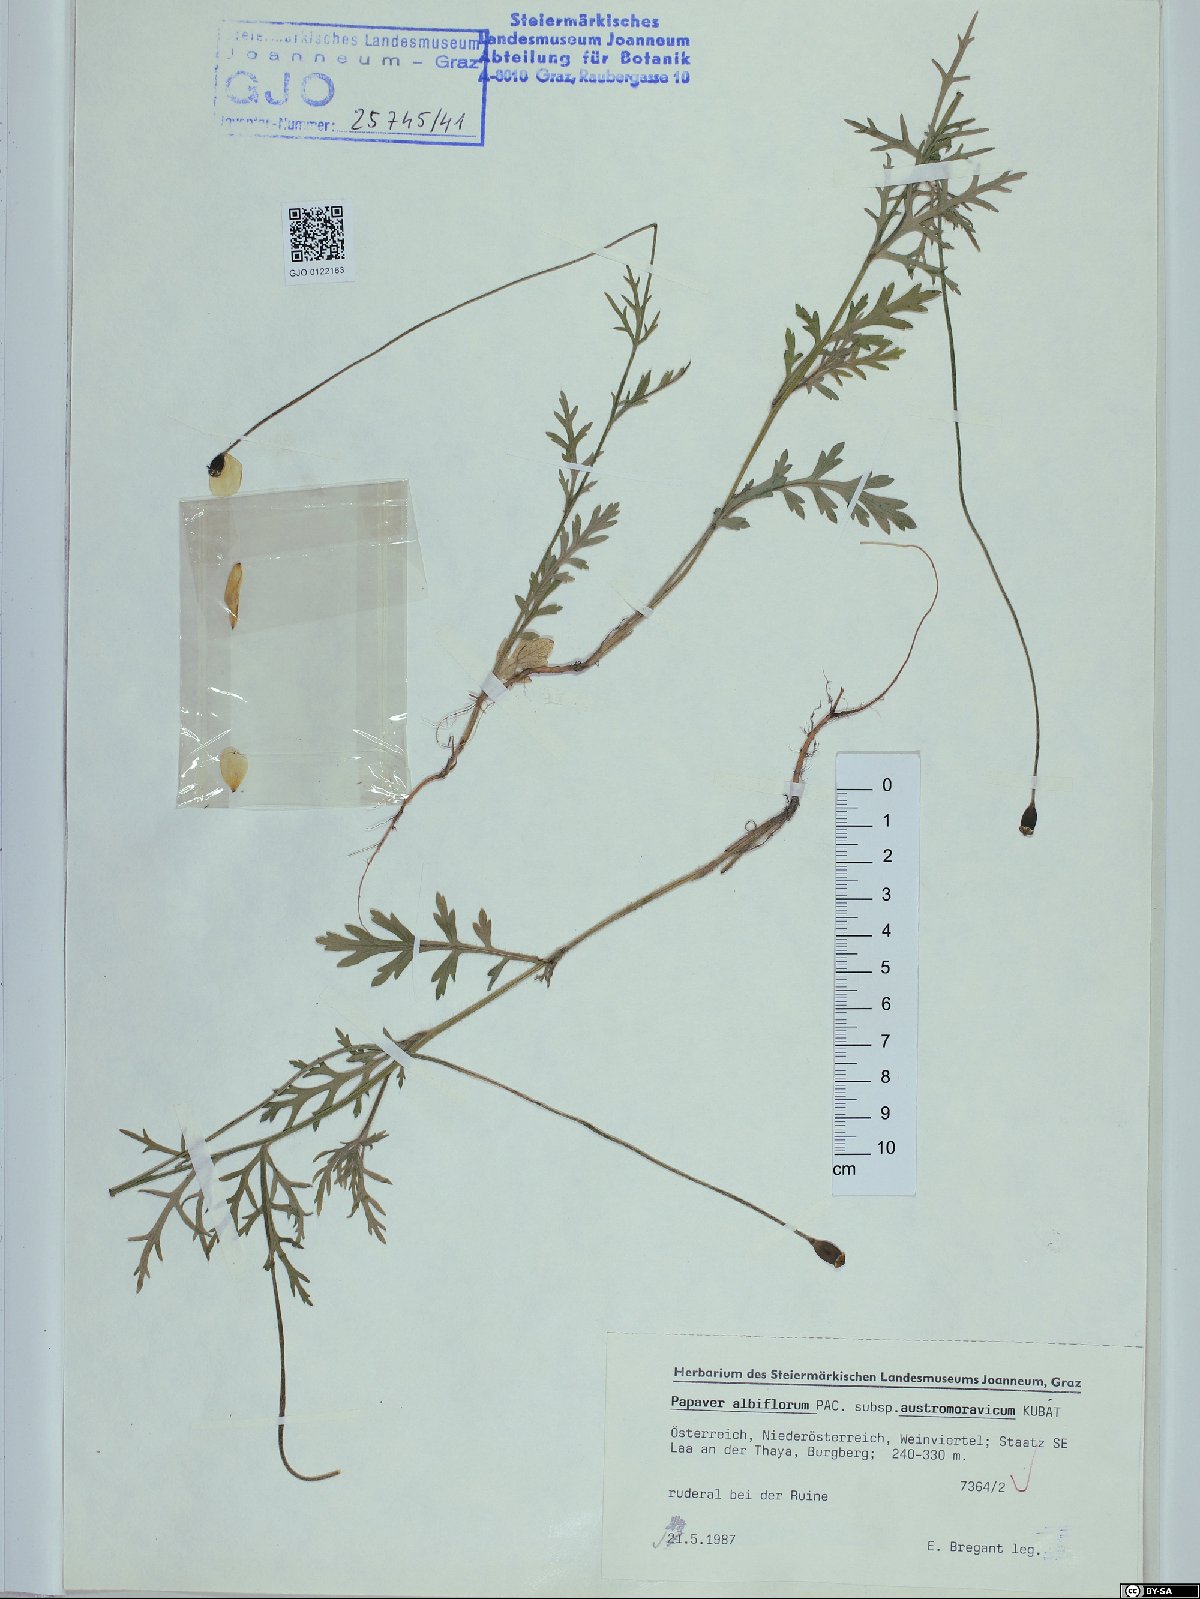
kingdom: Plantae
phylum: Tracheophyta
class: Magnoliopsida
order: Ranunculales
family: Papaveraceae
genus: Papaver
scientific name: Papaver dubium
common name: Long-headed poppy
